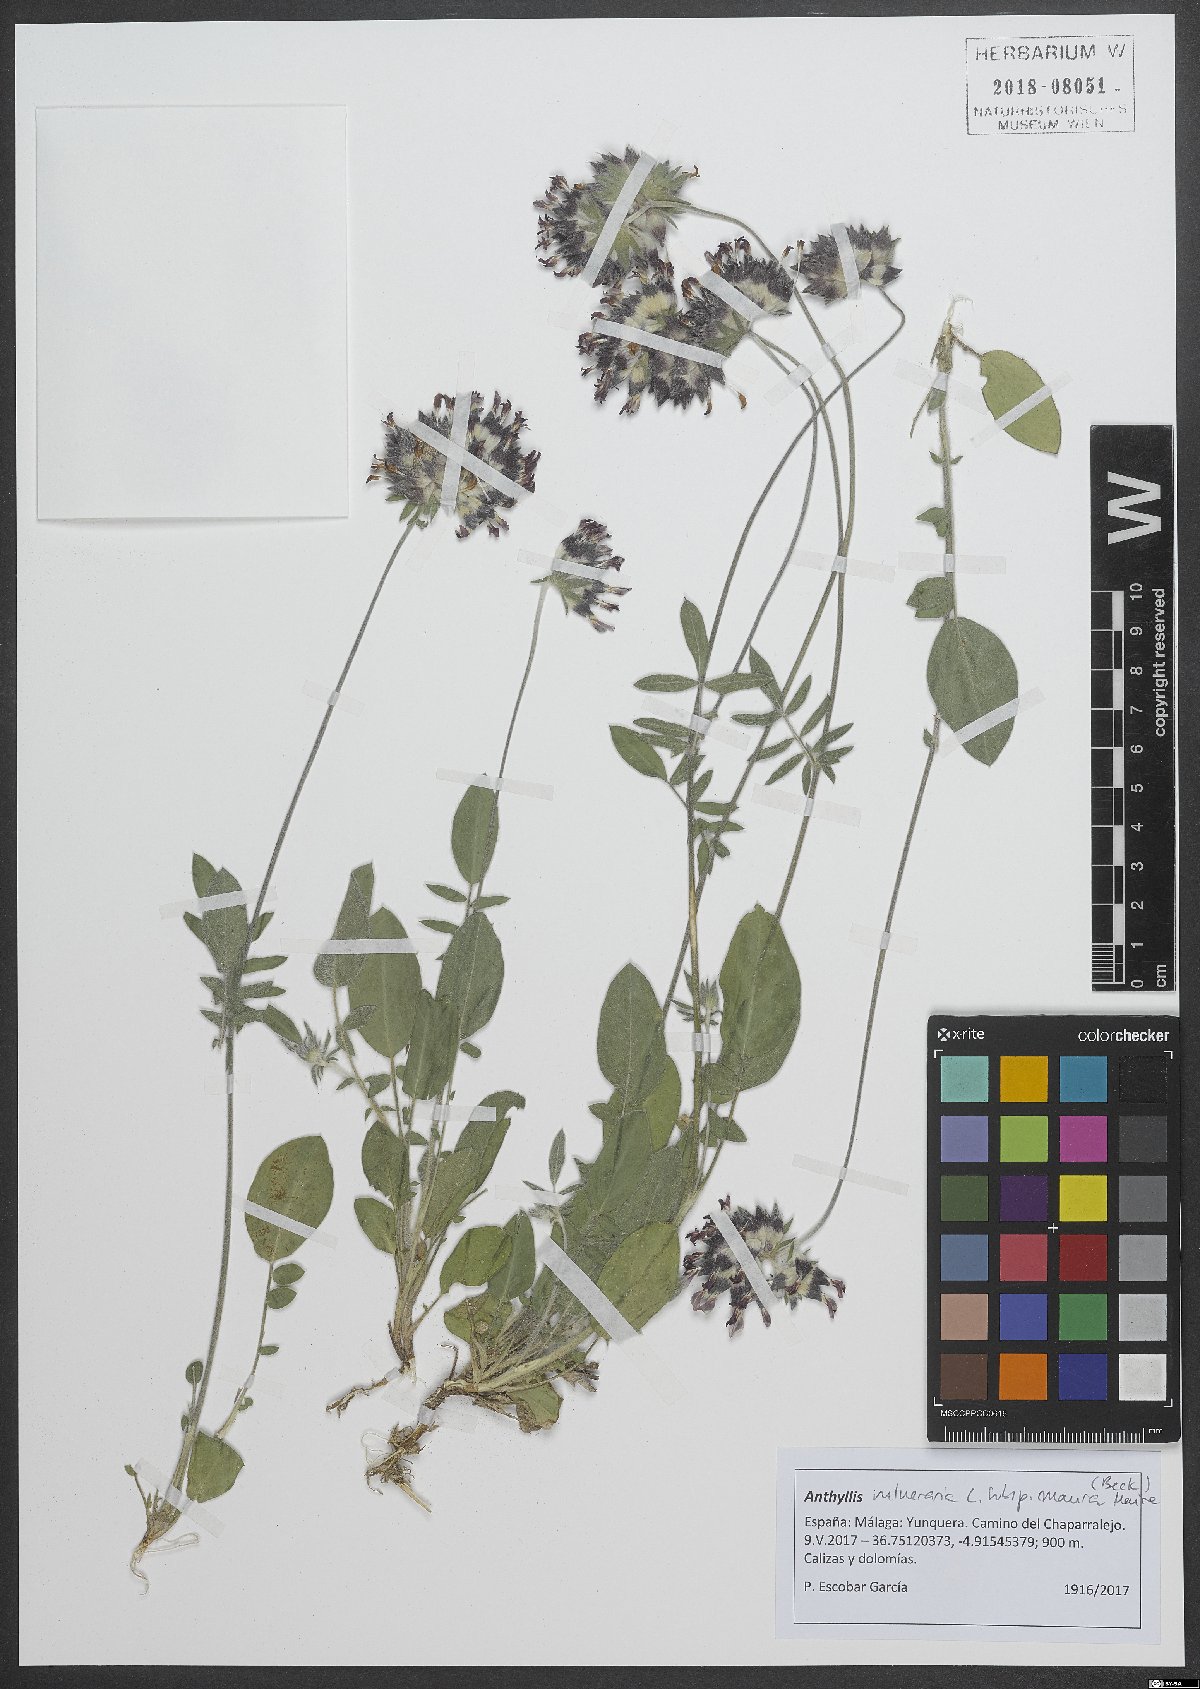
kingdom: Plantae
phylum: Tracheophyta
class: Magnoliopsida
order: Fabales
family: Fabaceae
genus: Anthyllis
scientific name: Anthyllis vulneraria
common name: Kidney vetch
